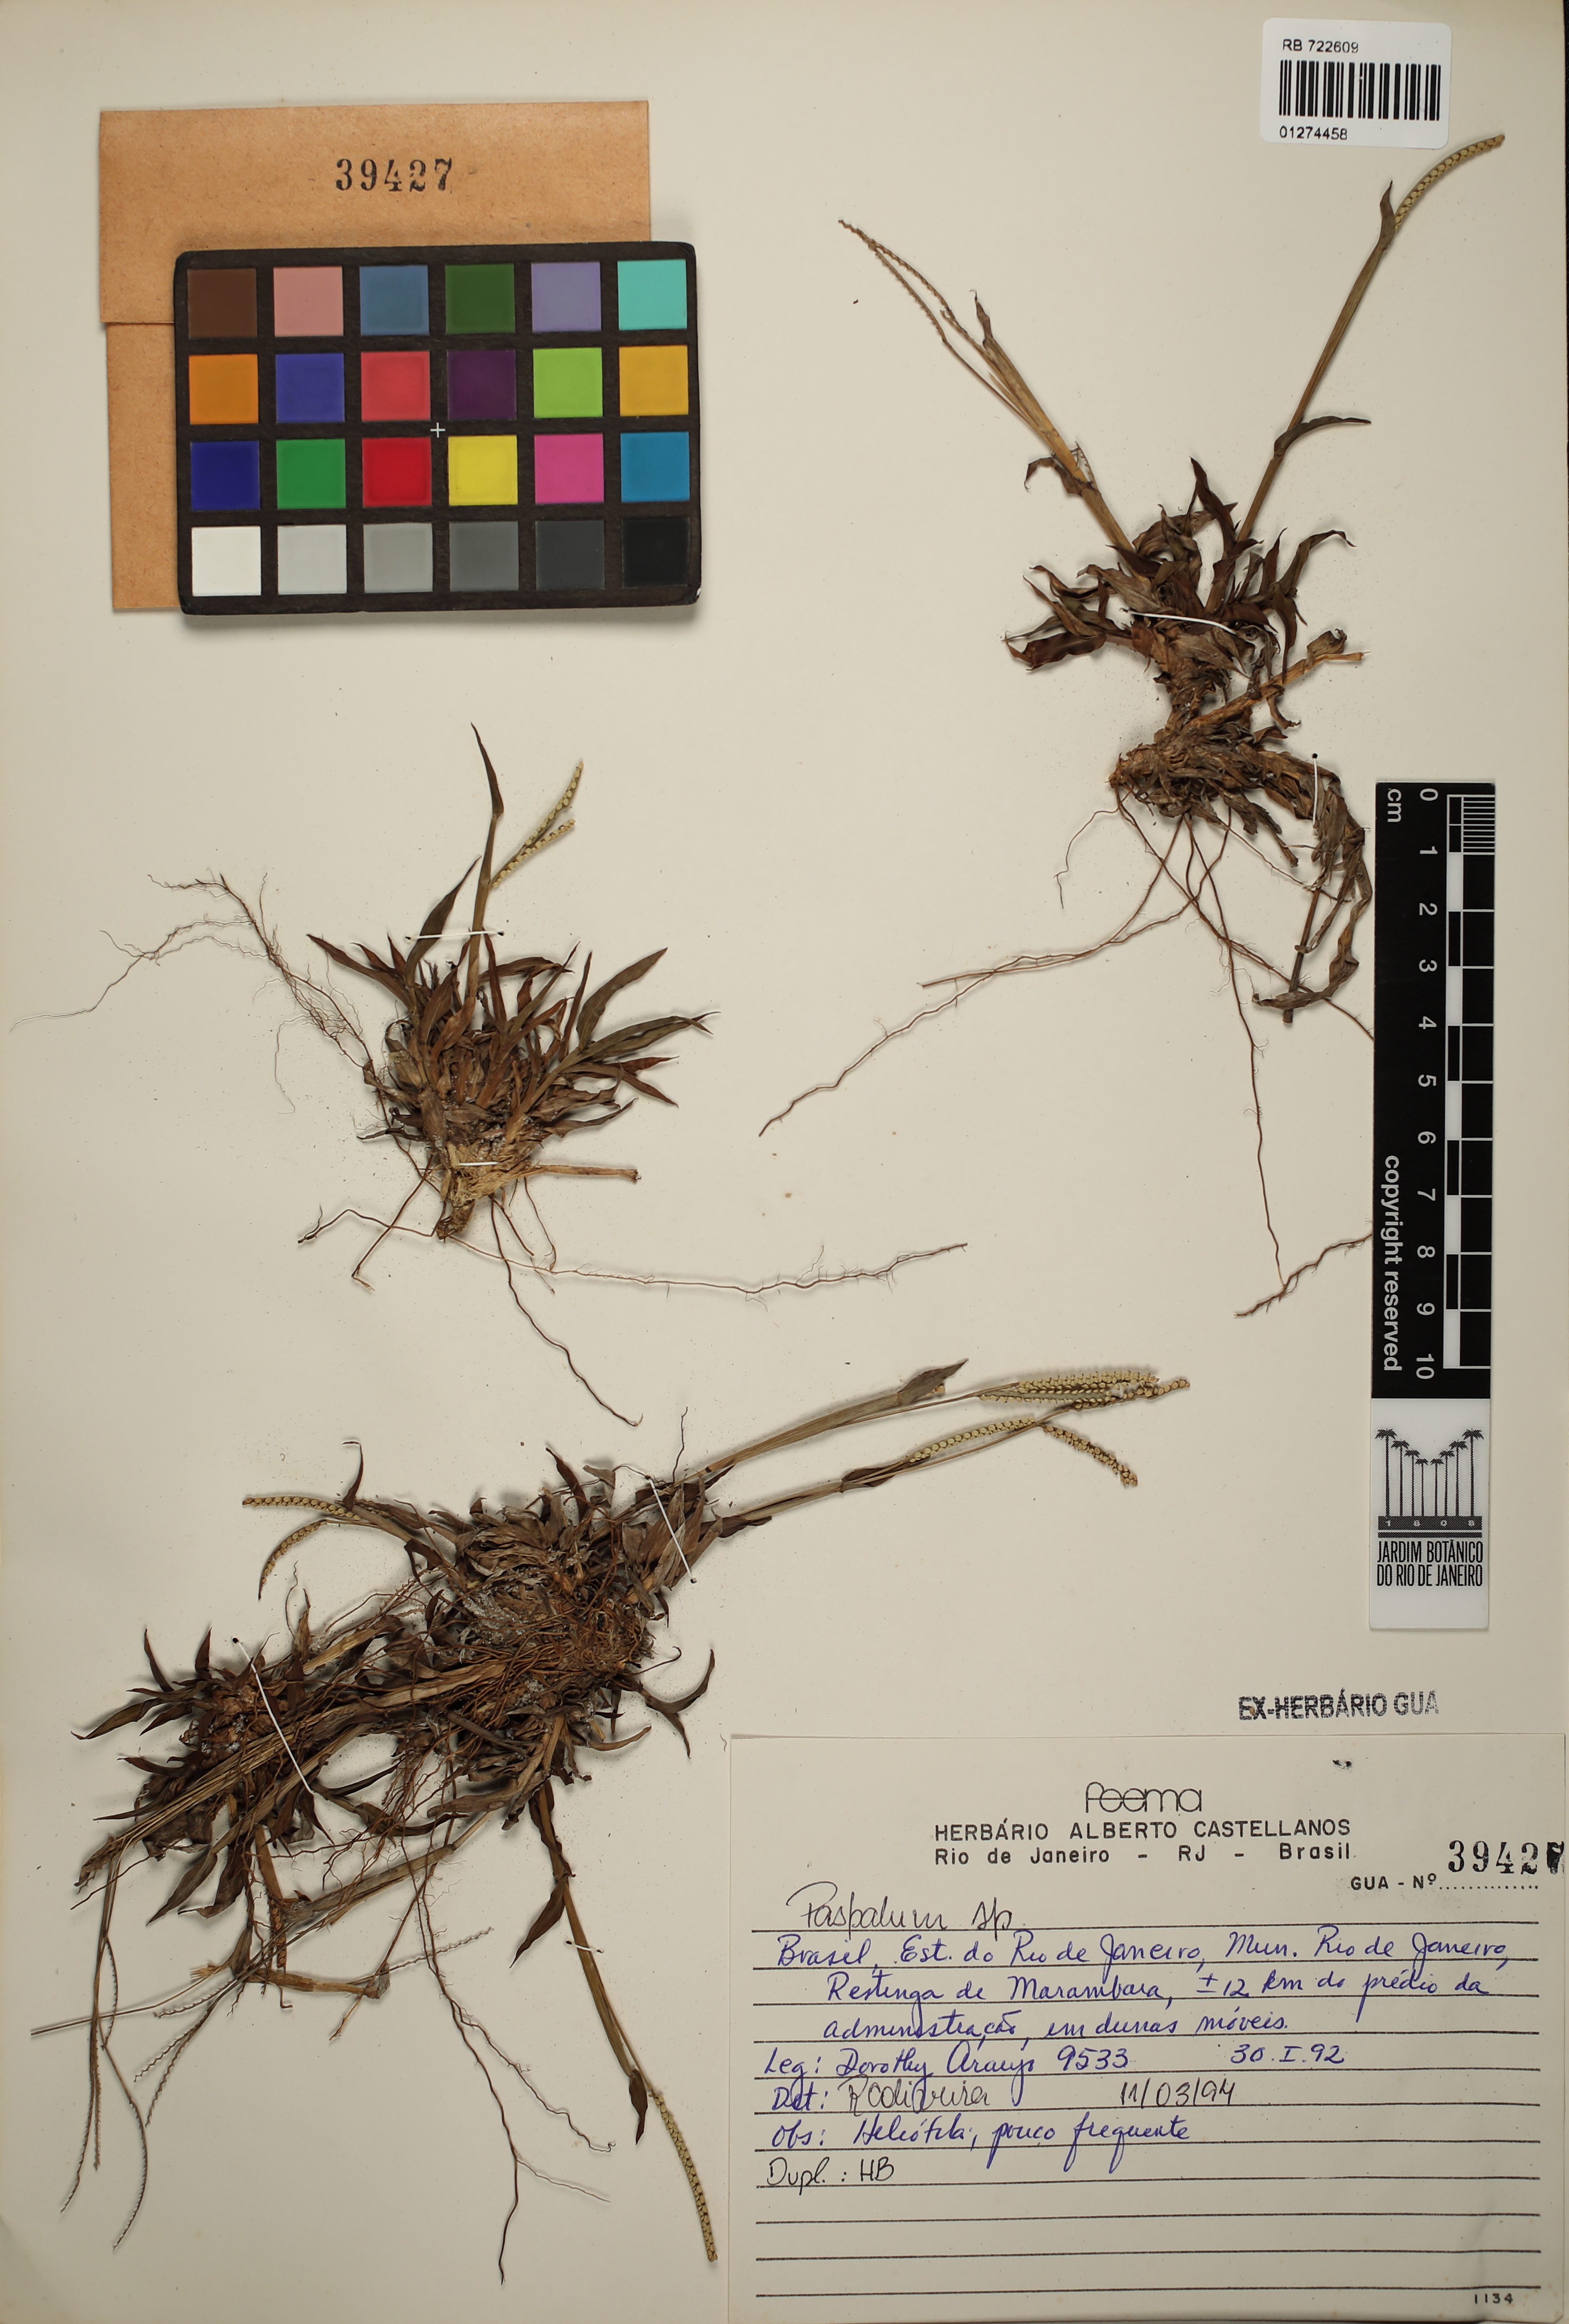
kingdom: Plantae
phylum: Tracheophyta
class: Liliopsida
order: Poales
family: Poaceae
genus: Paspalum
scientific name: Paspalum
